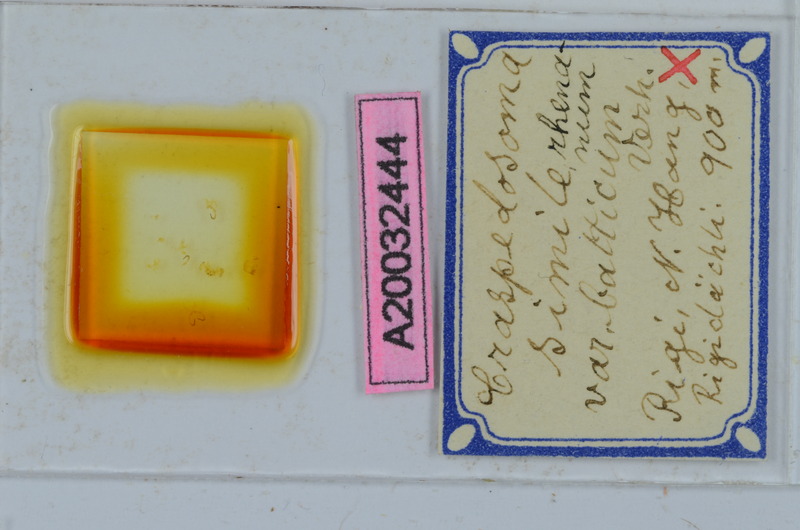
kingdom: Animalia
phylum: Arthropoda
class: Diplopoda
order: Chordeumatida
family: Craspedosomatidae
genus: Craspedosoma
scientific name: Craspedosoma rawlinsii
